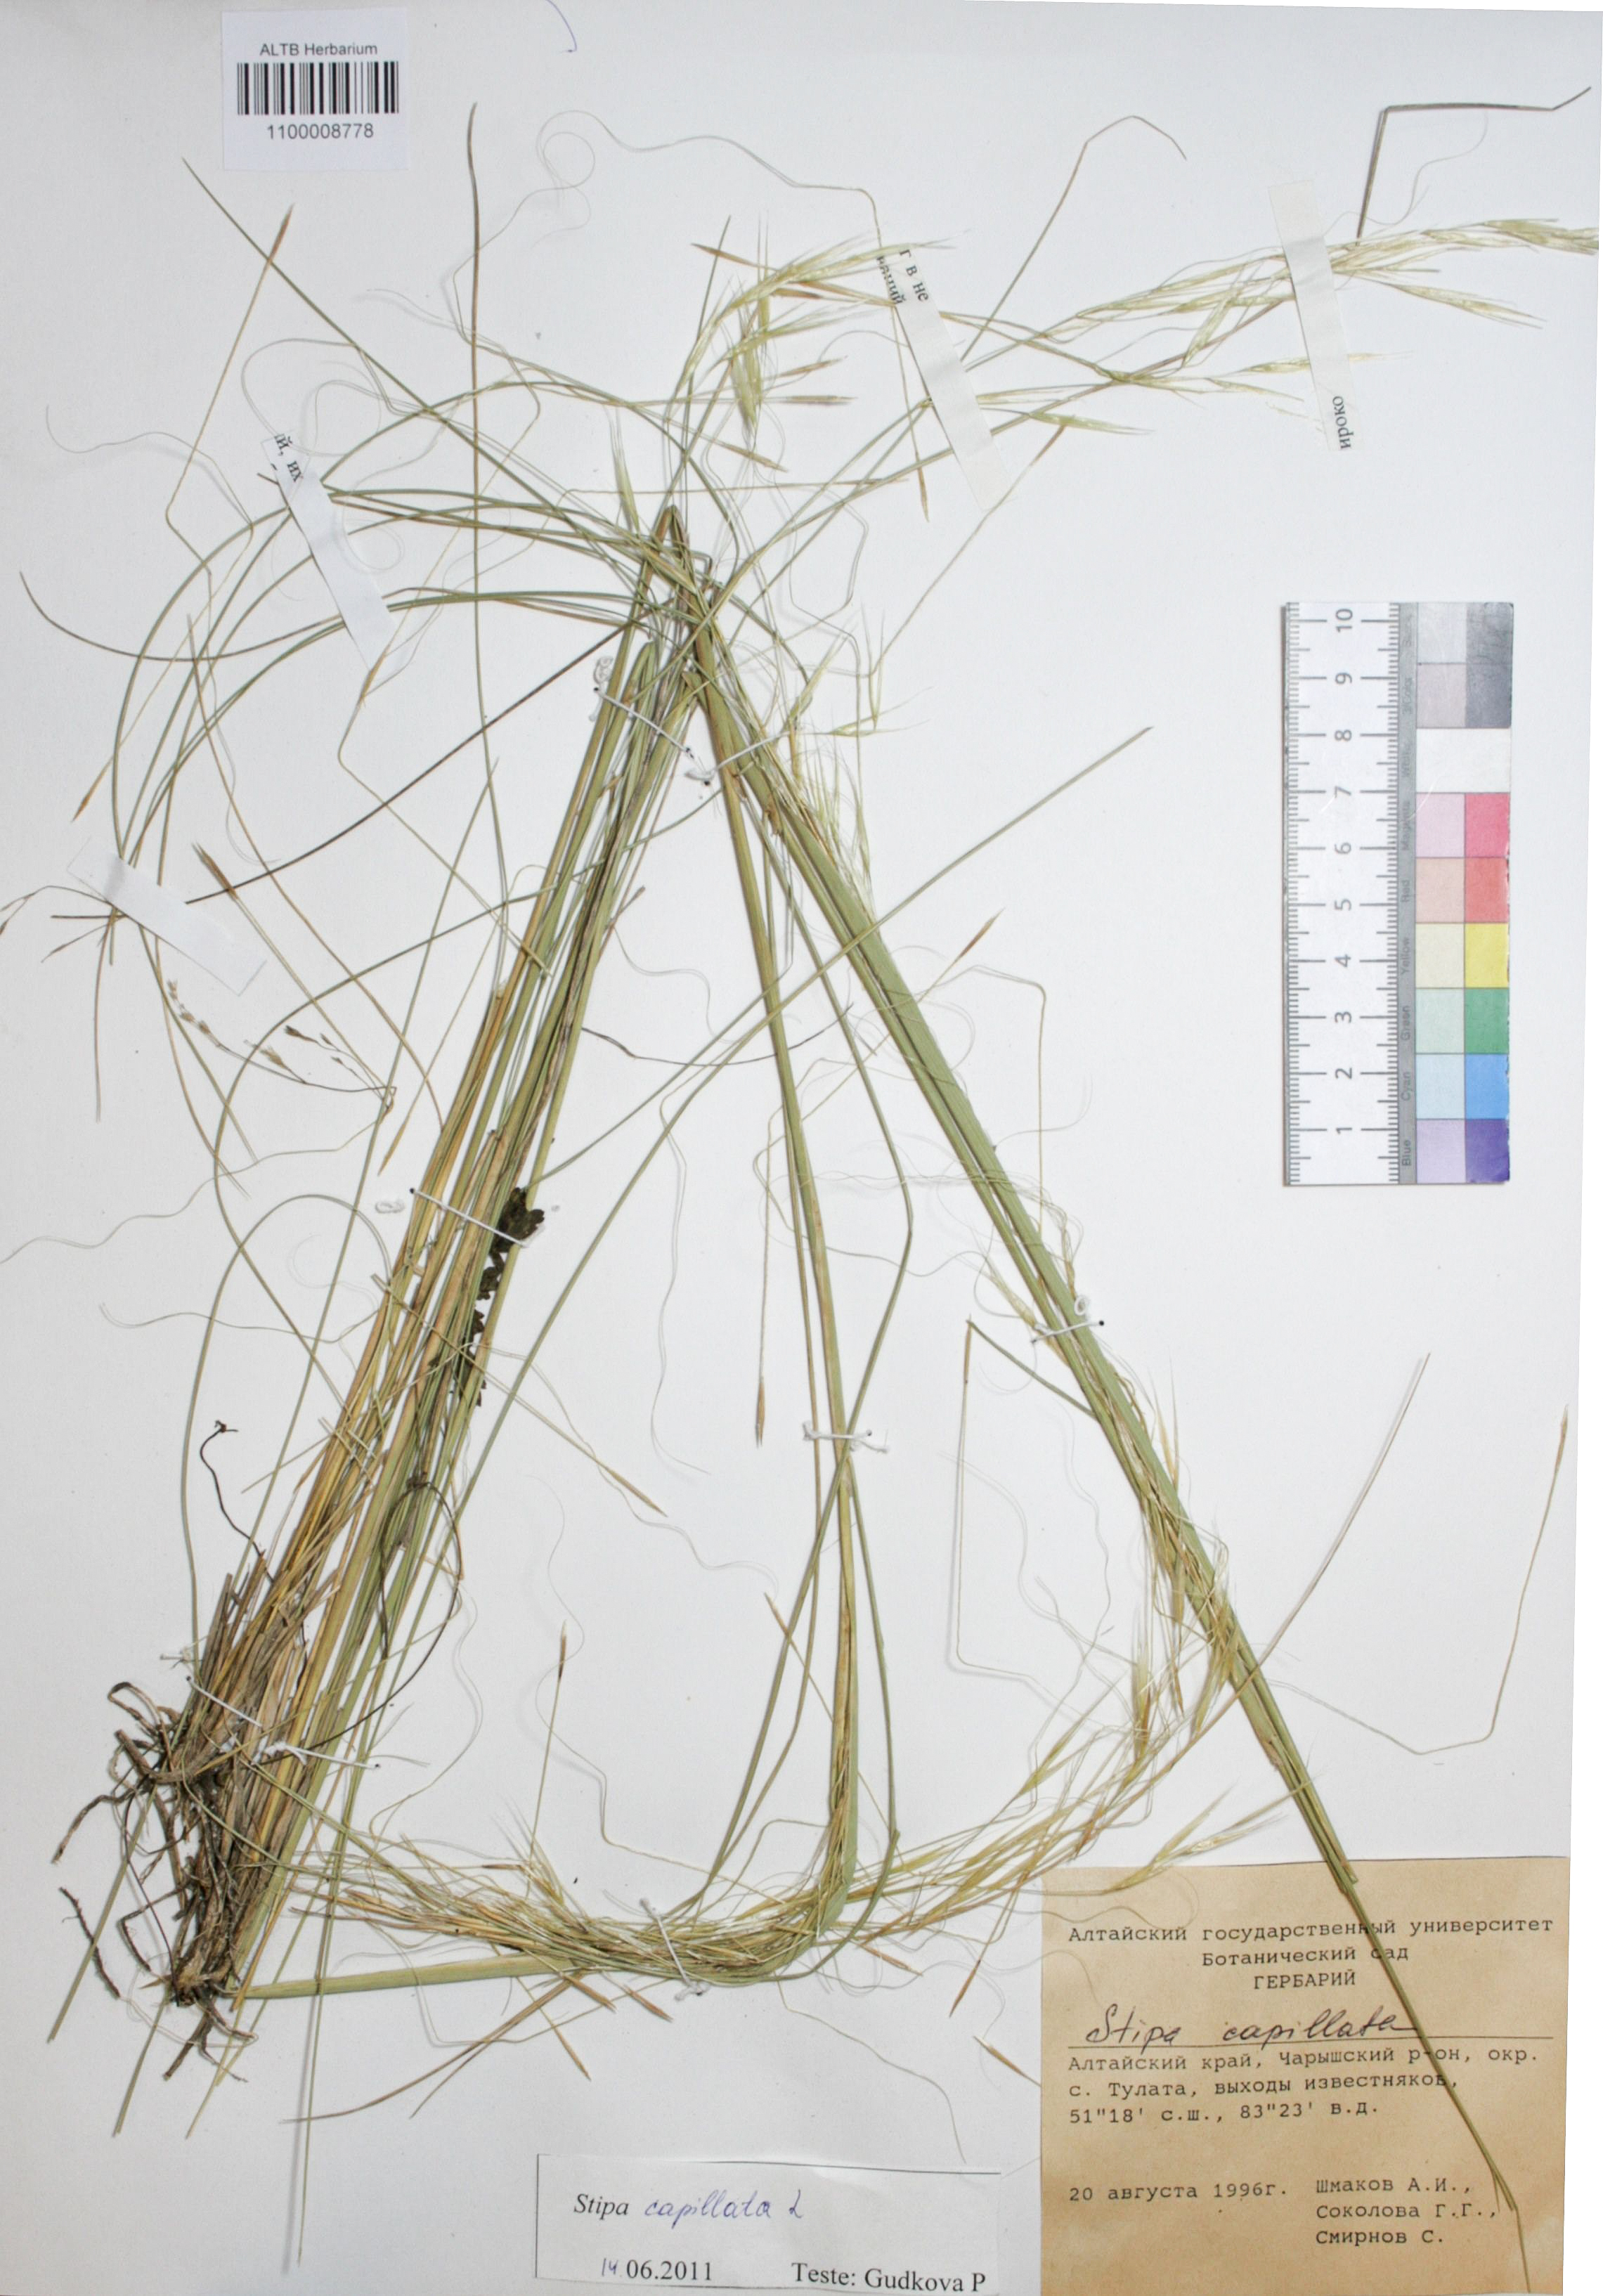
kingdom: Plantae
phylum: Tracheophyta
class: Liliopsida
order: Poales
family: Poaceae
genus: Stipa
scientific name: Stipa capillata
